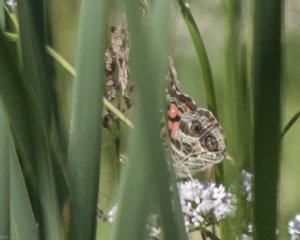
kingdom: Animalia
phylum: Arthropoda
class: Insecta
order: Lepidoptera
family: Nymphalidae
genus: Vanessa
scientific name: Vanessa virginiensis
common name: American Lady
